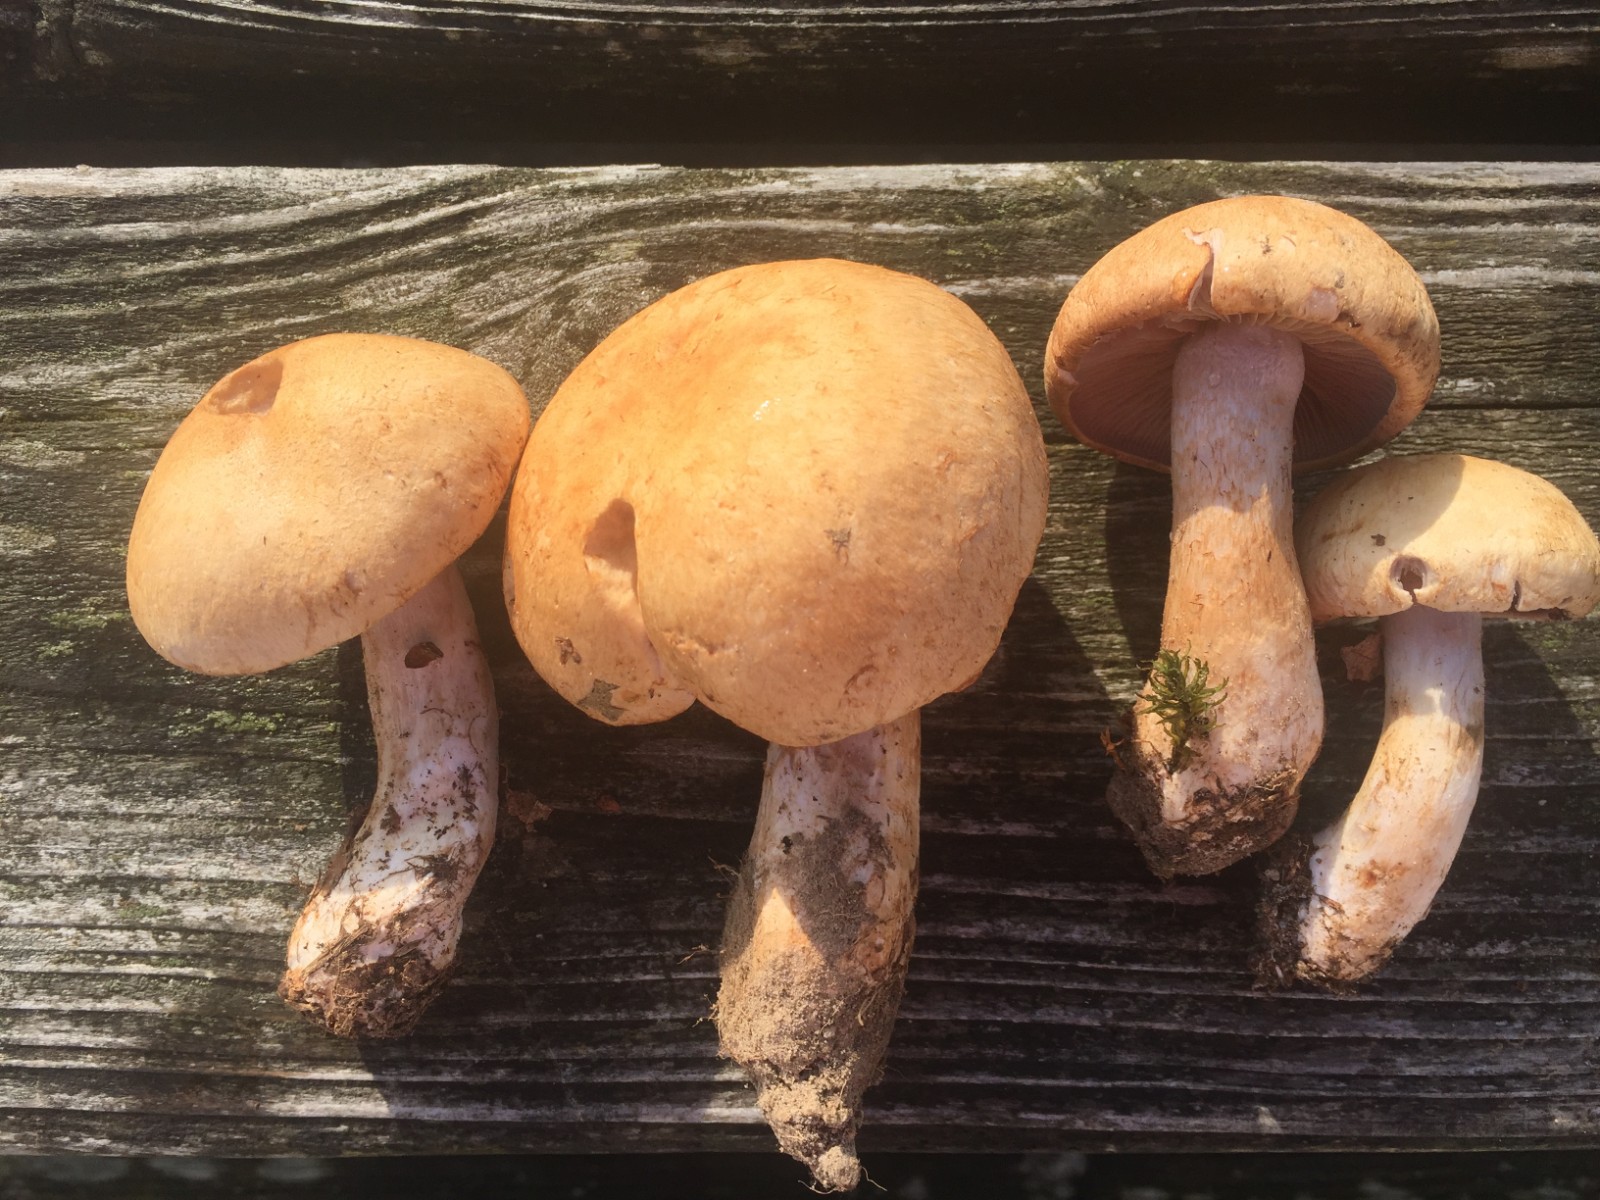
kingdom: Fungi
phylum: Basidiomycota
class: Agaricomycetes
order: Agaricales
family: Cortinariaceae
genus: Cortinarius
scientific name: Cortinarius largus
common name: violetrandet slørhat
